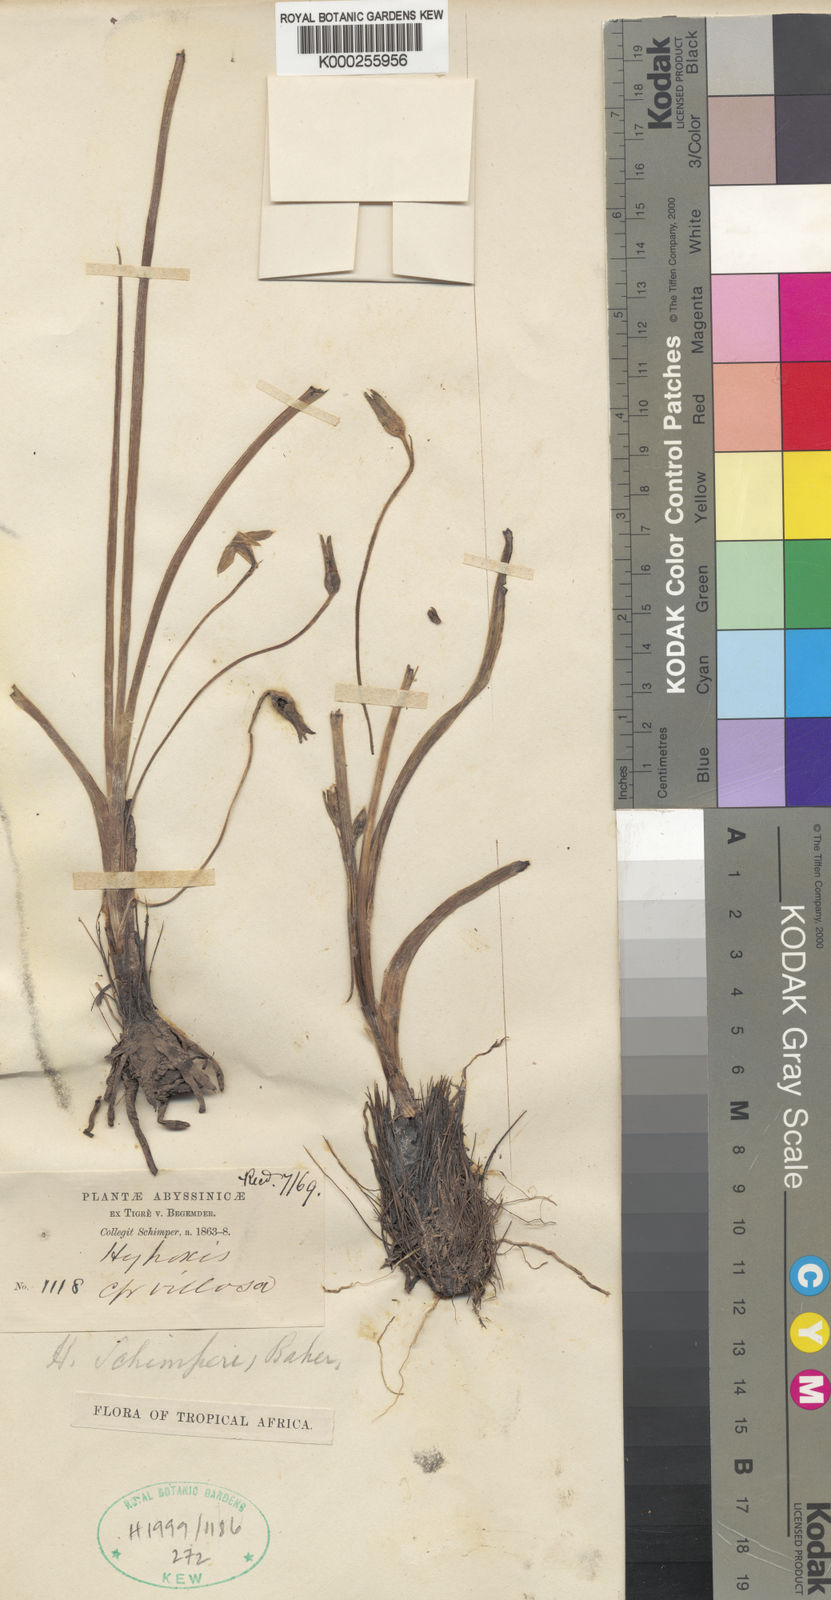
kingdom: Plantae
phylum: Tracheophyta
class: Liliopsida
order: Asparagales
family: Hypoxidaceae
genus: Hypoxis
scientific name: Hypoxis schimperi
